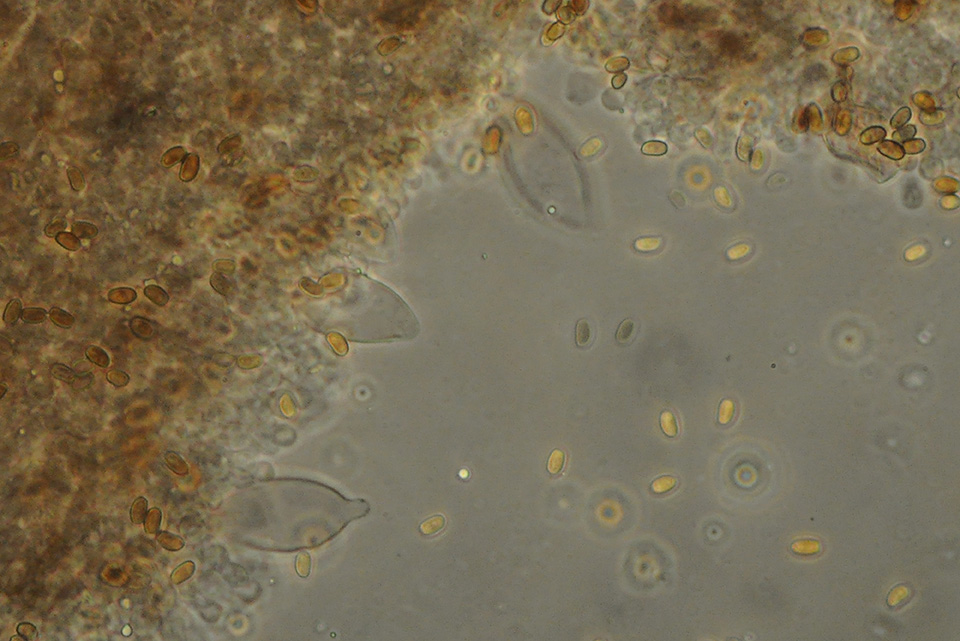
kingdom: Fungi
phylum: Basidiomycota
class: Agaricomycetes
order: Agaricales
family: Psathyrellaceae
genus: Psathyrella
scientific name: Psathyrella laevissima
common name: Slender stump brittlestem
